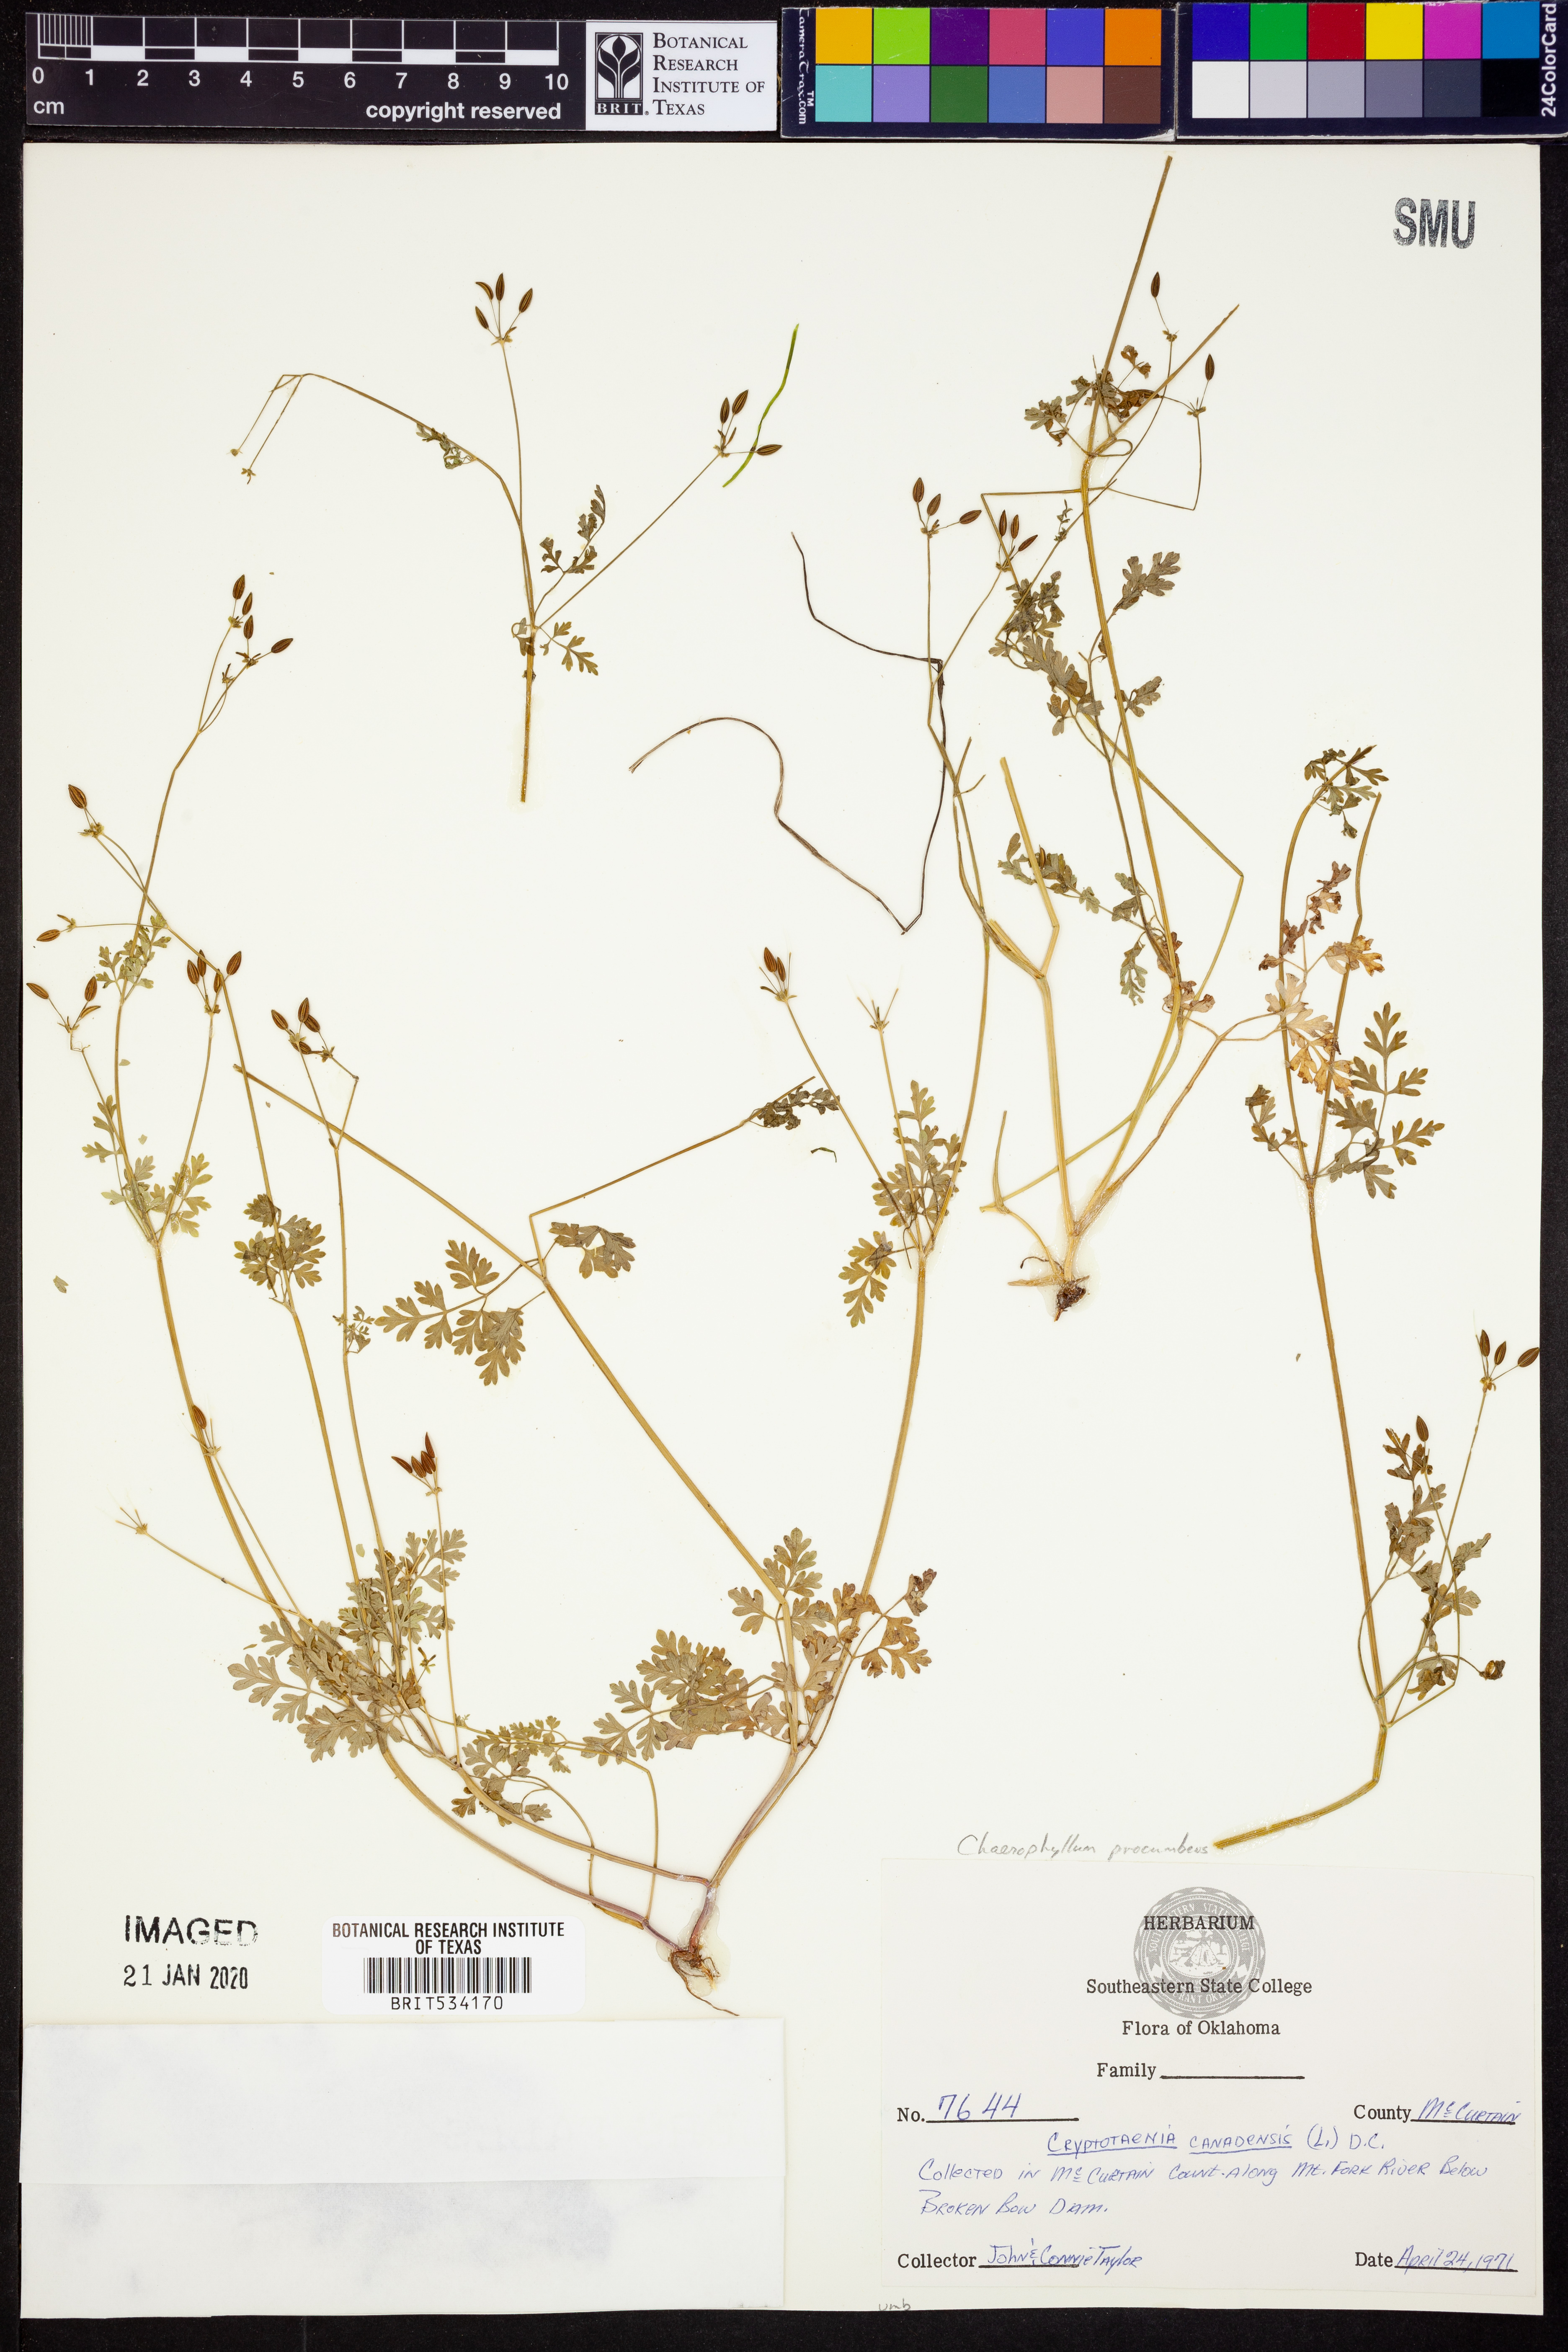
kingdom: Plantae
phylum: Tracheophyta
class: Magnoliopsida
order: Apiales
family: Apiaceae
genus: Chaerophyllum
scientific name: Chaerophyllum procumbens
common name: Spreading chervil
